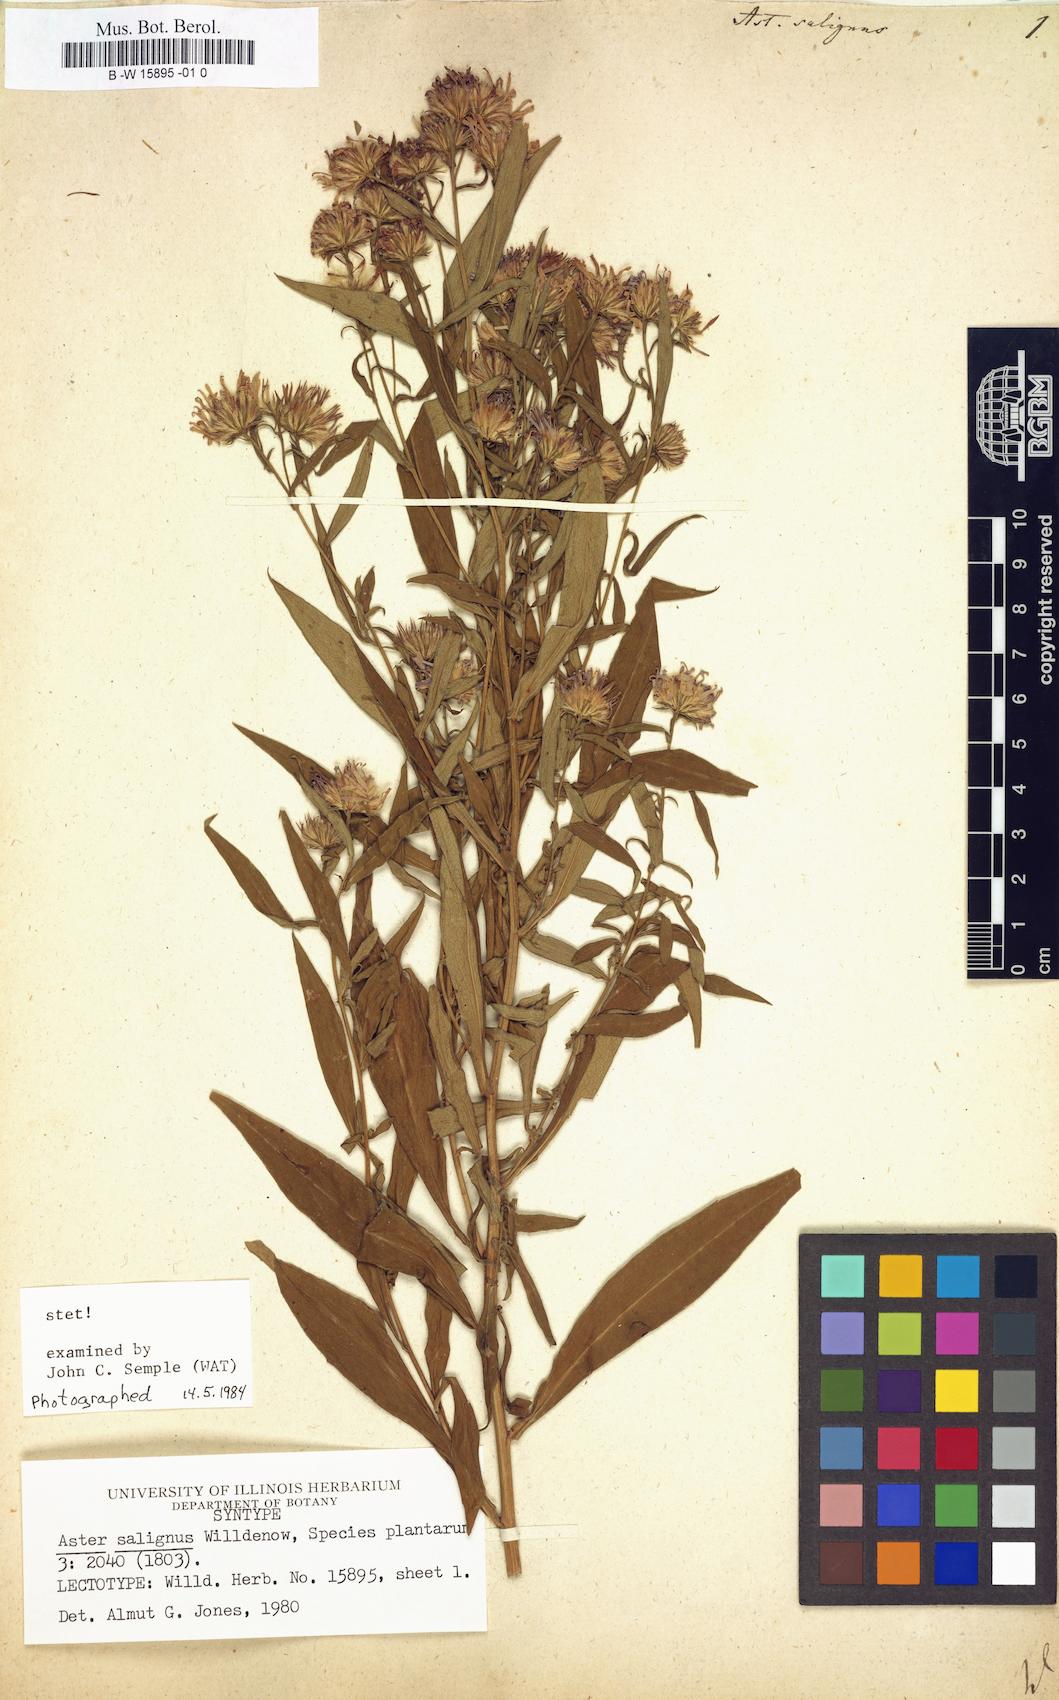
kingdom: Plantae
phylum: Tracheophyta
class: Magnoliopsida
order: Asterales
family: Asteraceae
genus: Symphyotrichum
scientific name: Symphyotrichum salignum
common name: Common michaelmas daisy
